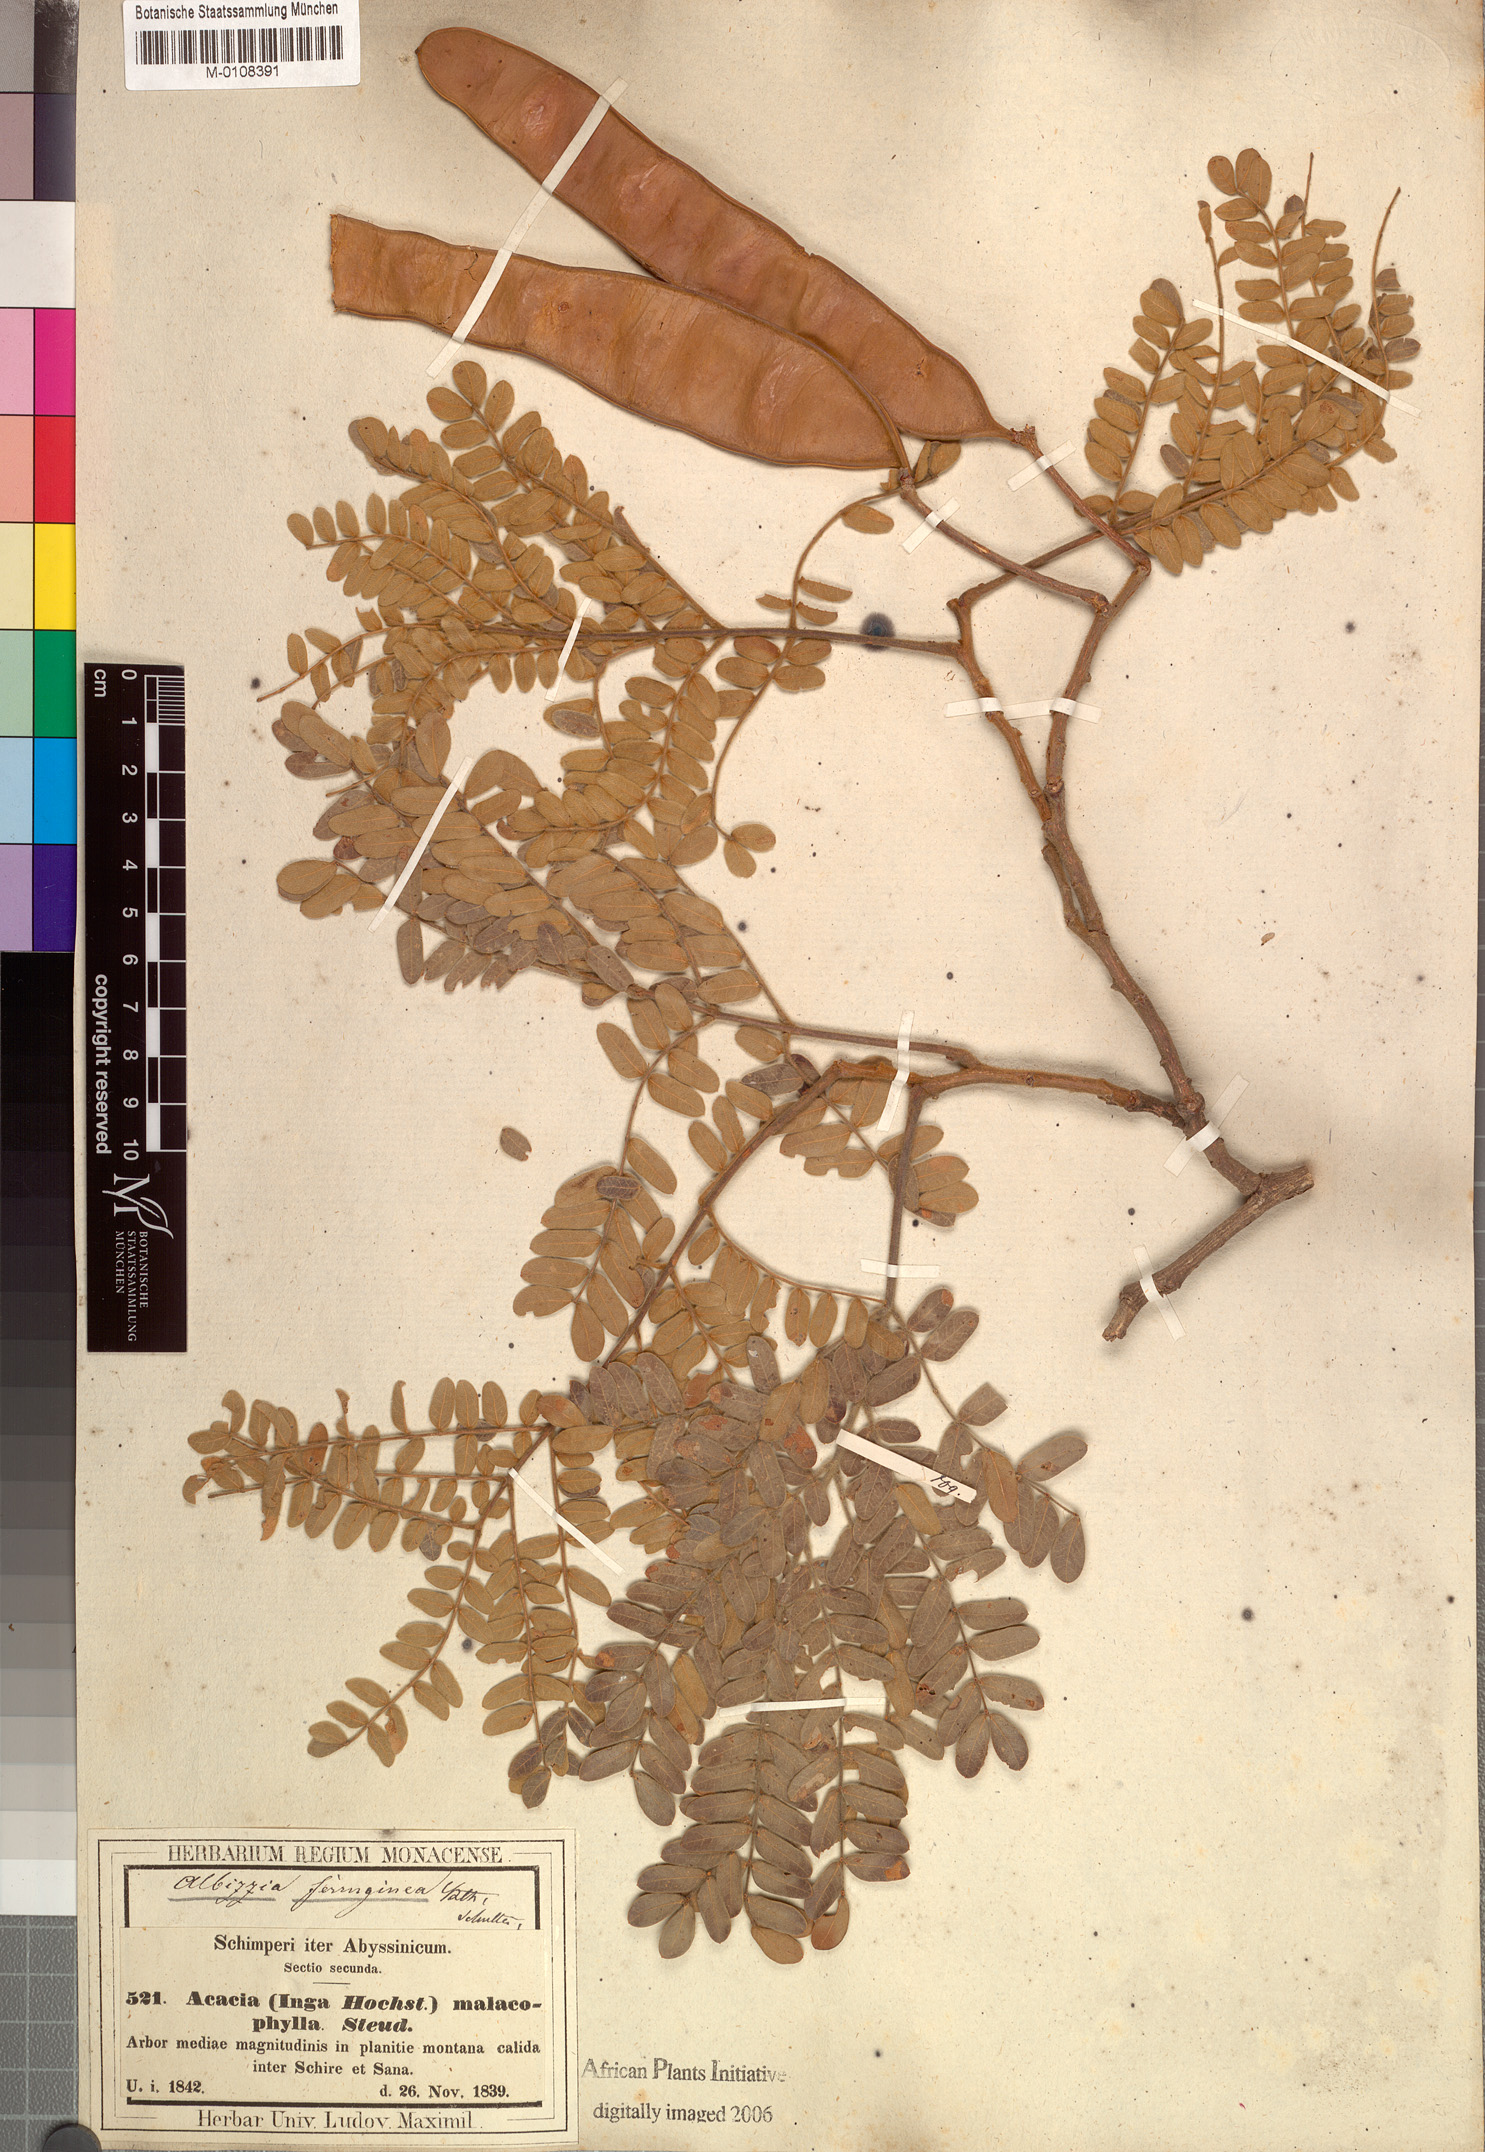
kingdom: Plantae
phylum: Tracheophyta
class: Magnoliopsida
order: Fabales
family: Fabaceae
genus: Albizia
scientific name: Albizia malacophylla
